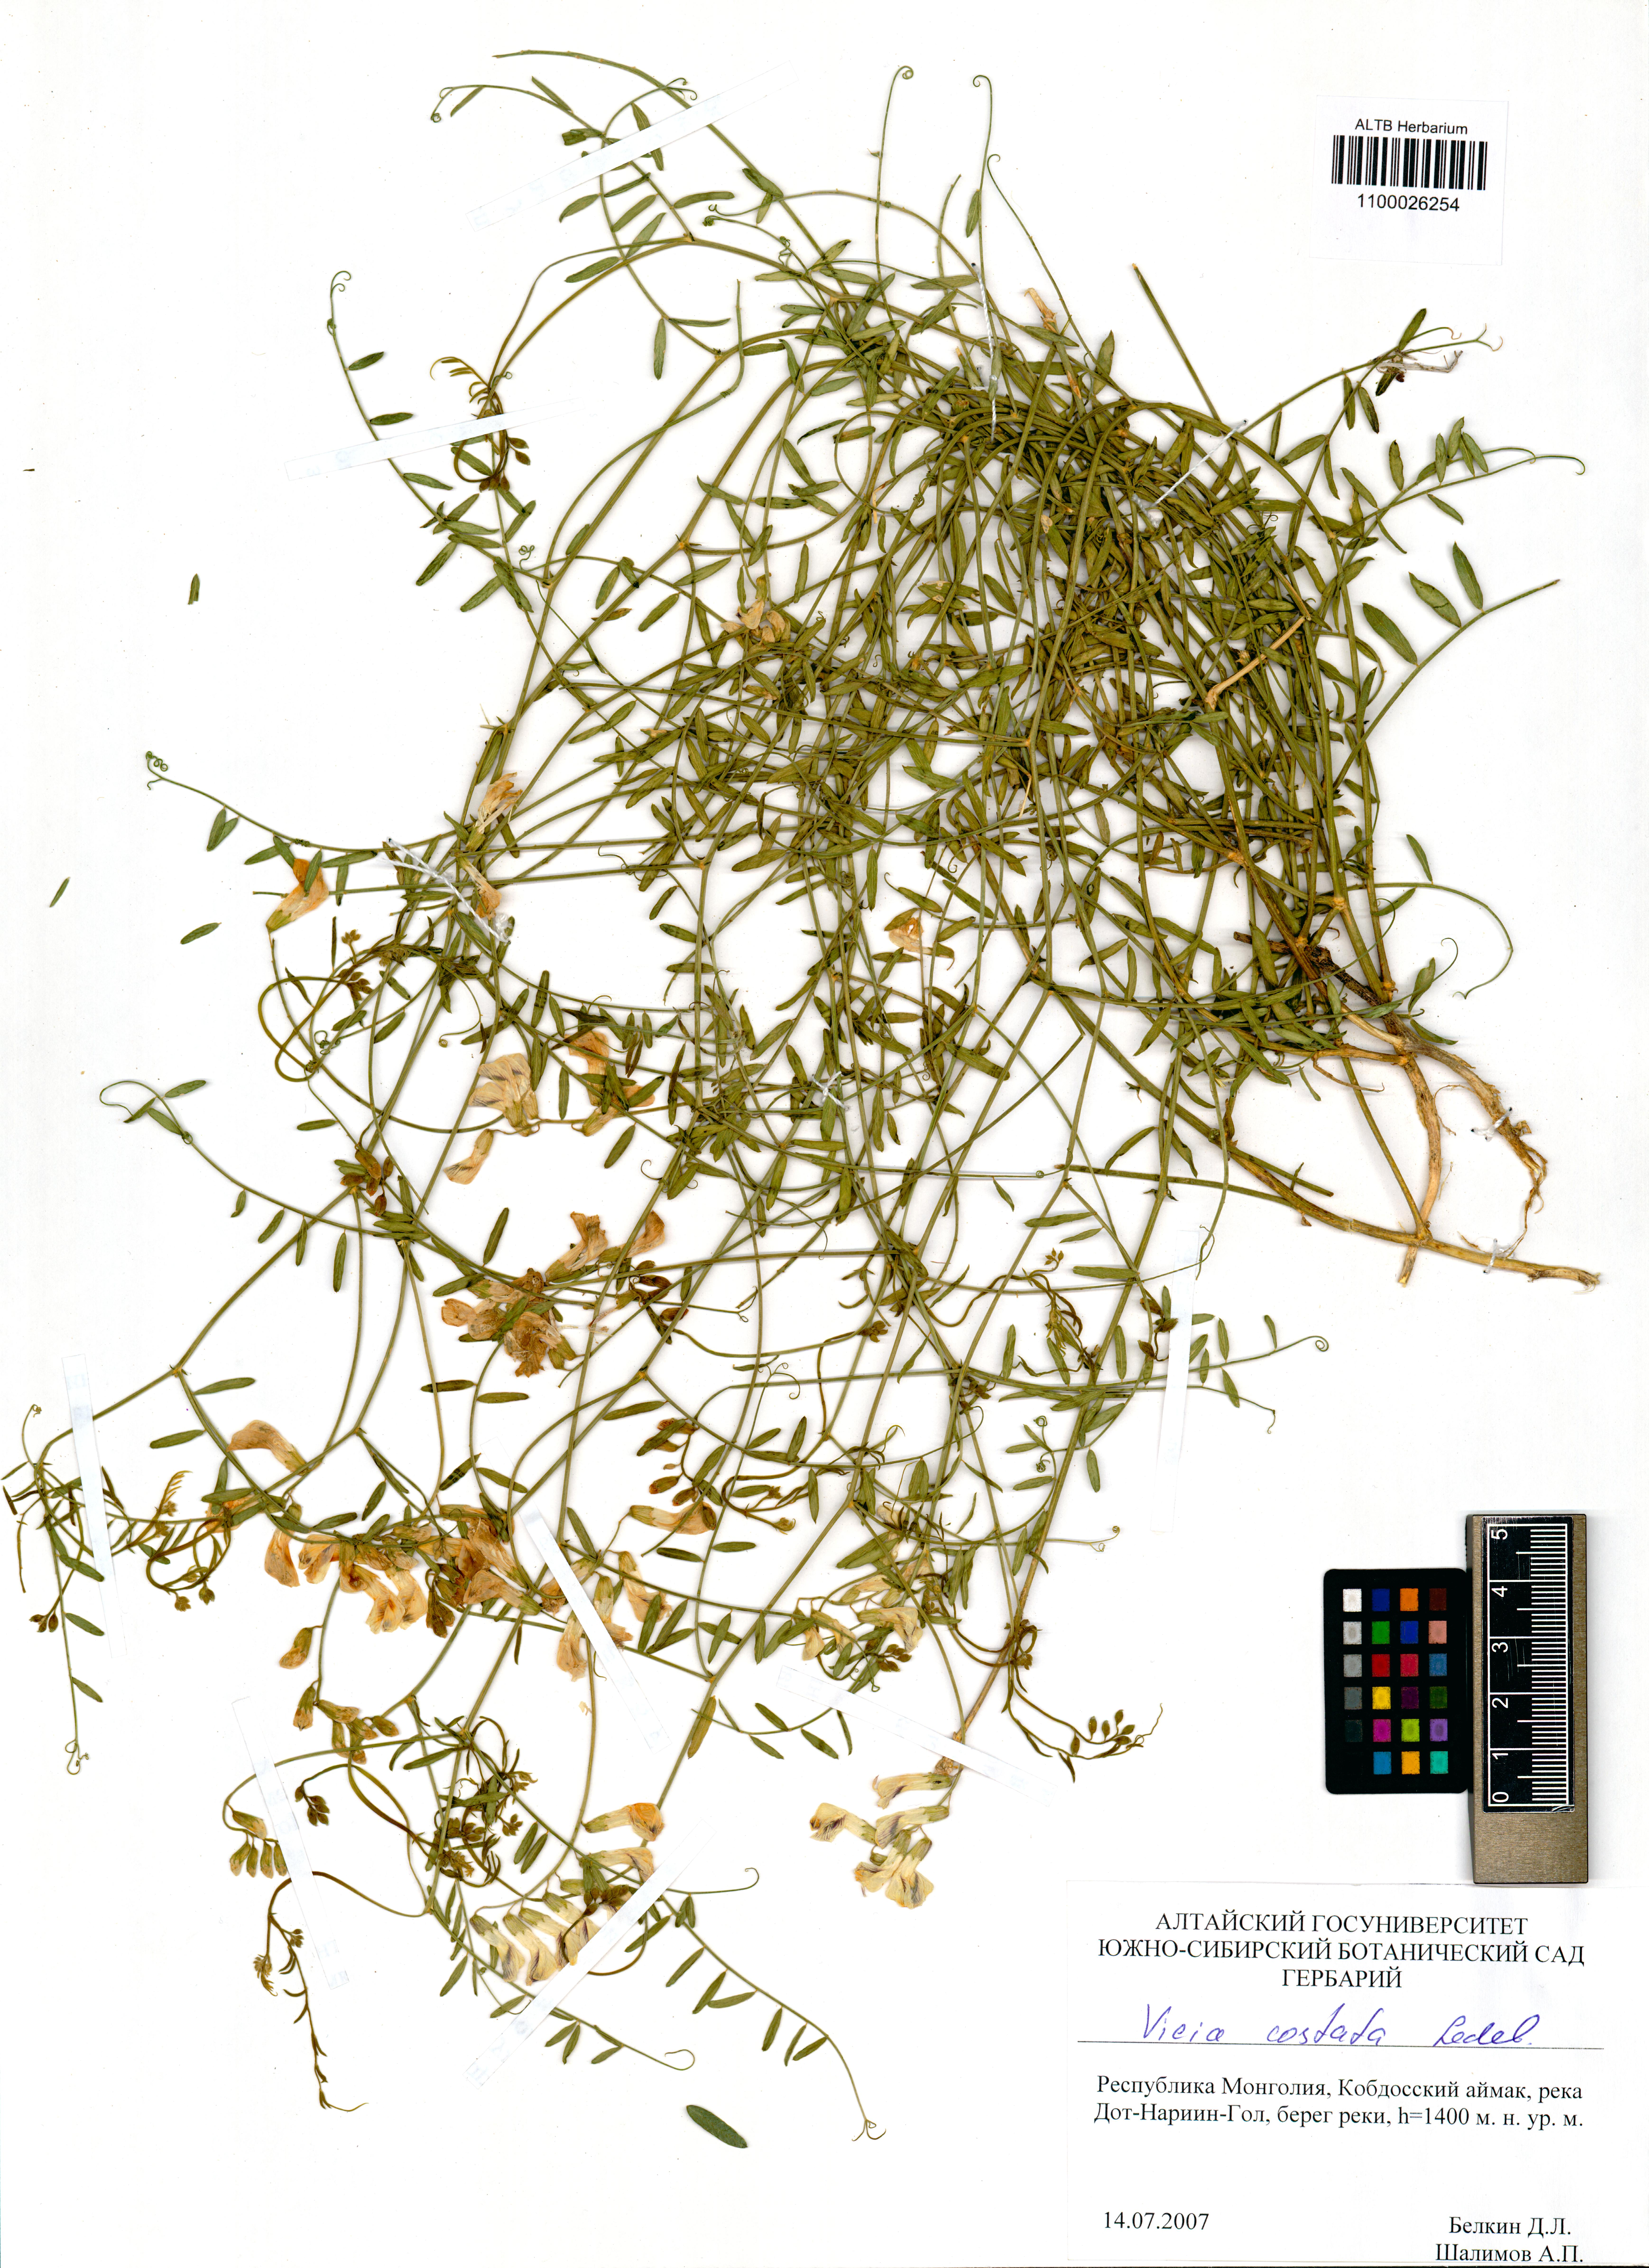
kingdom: Plantae
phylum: Tracheophyta
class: Magnoliopsida
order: Fabales
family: Fabaceae
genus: Vicia
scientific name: Vicia costata
